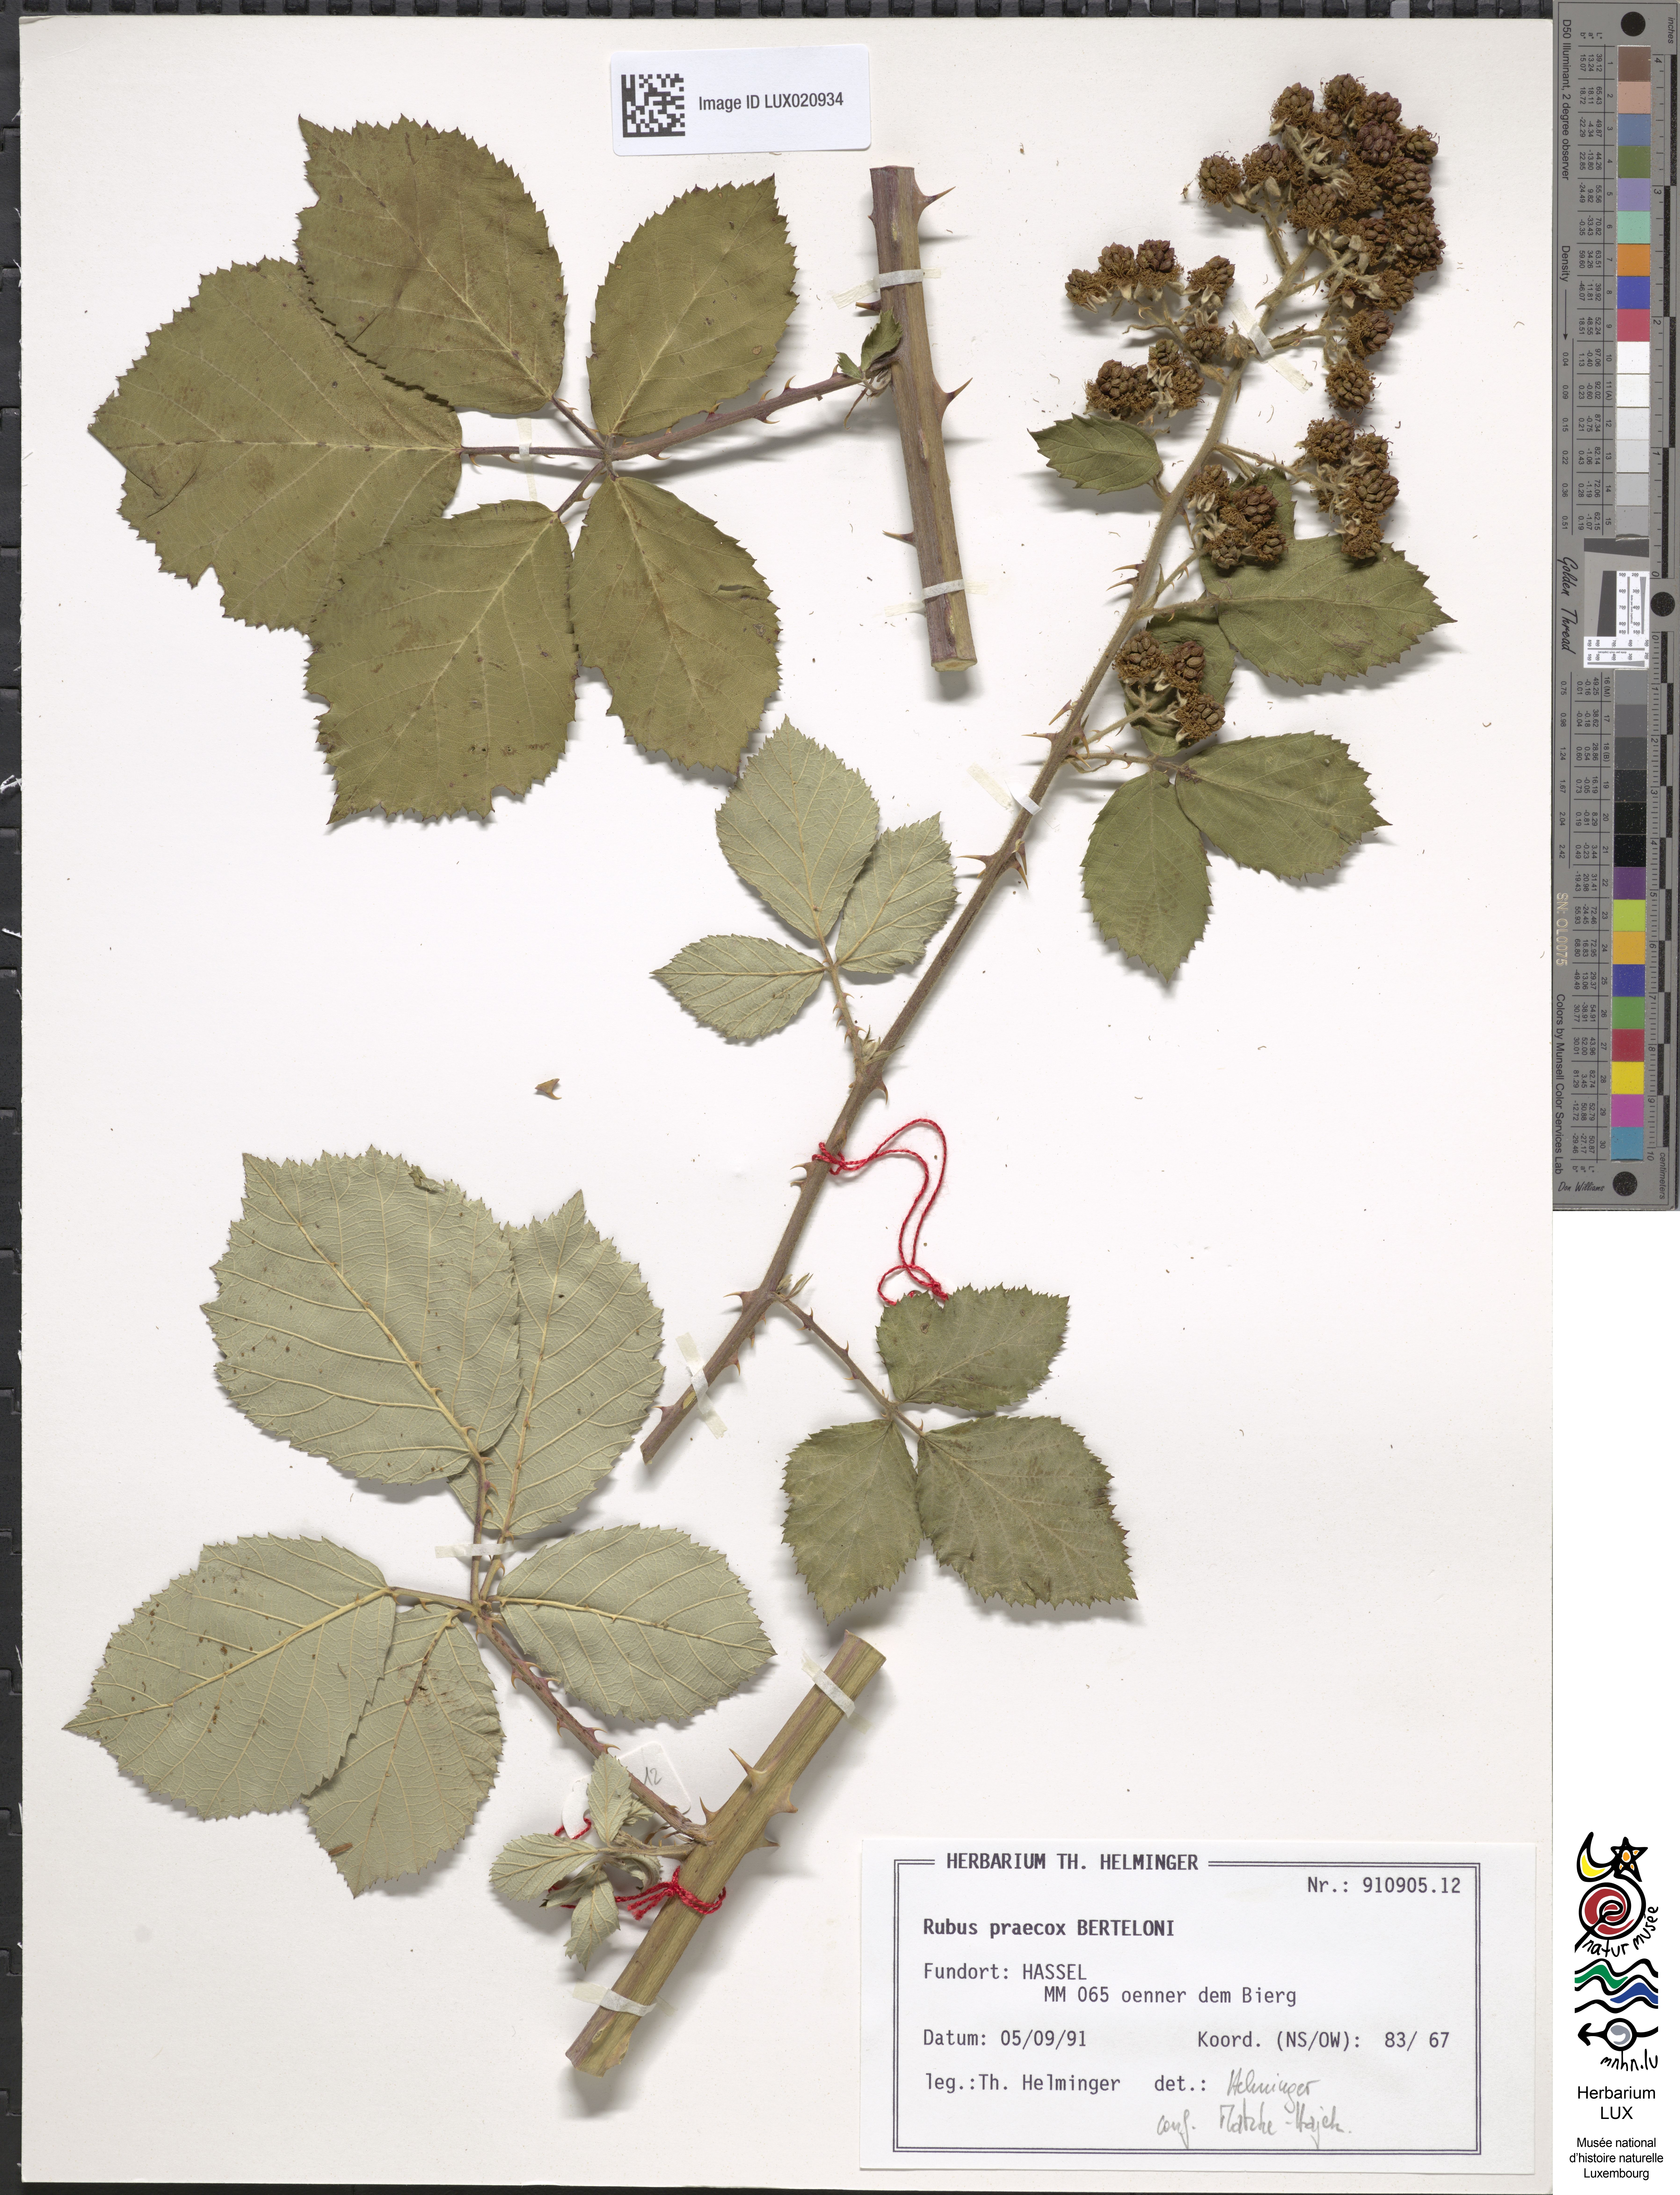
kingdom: Plantae
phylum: Tracheophyta
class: Magnoliopsida
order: Rosales
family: Rosaceae
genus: Rubus
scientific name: Rubus praecox
